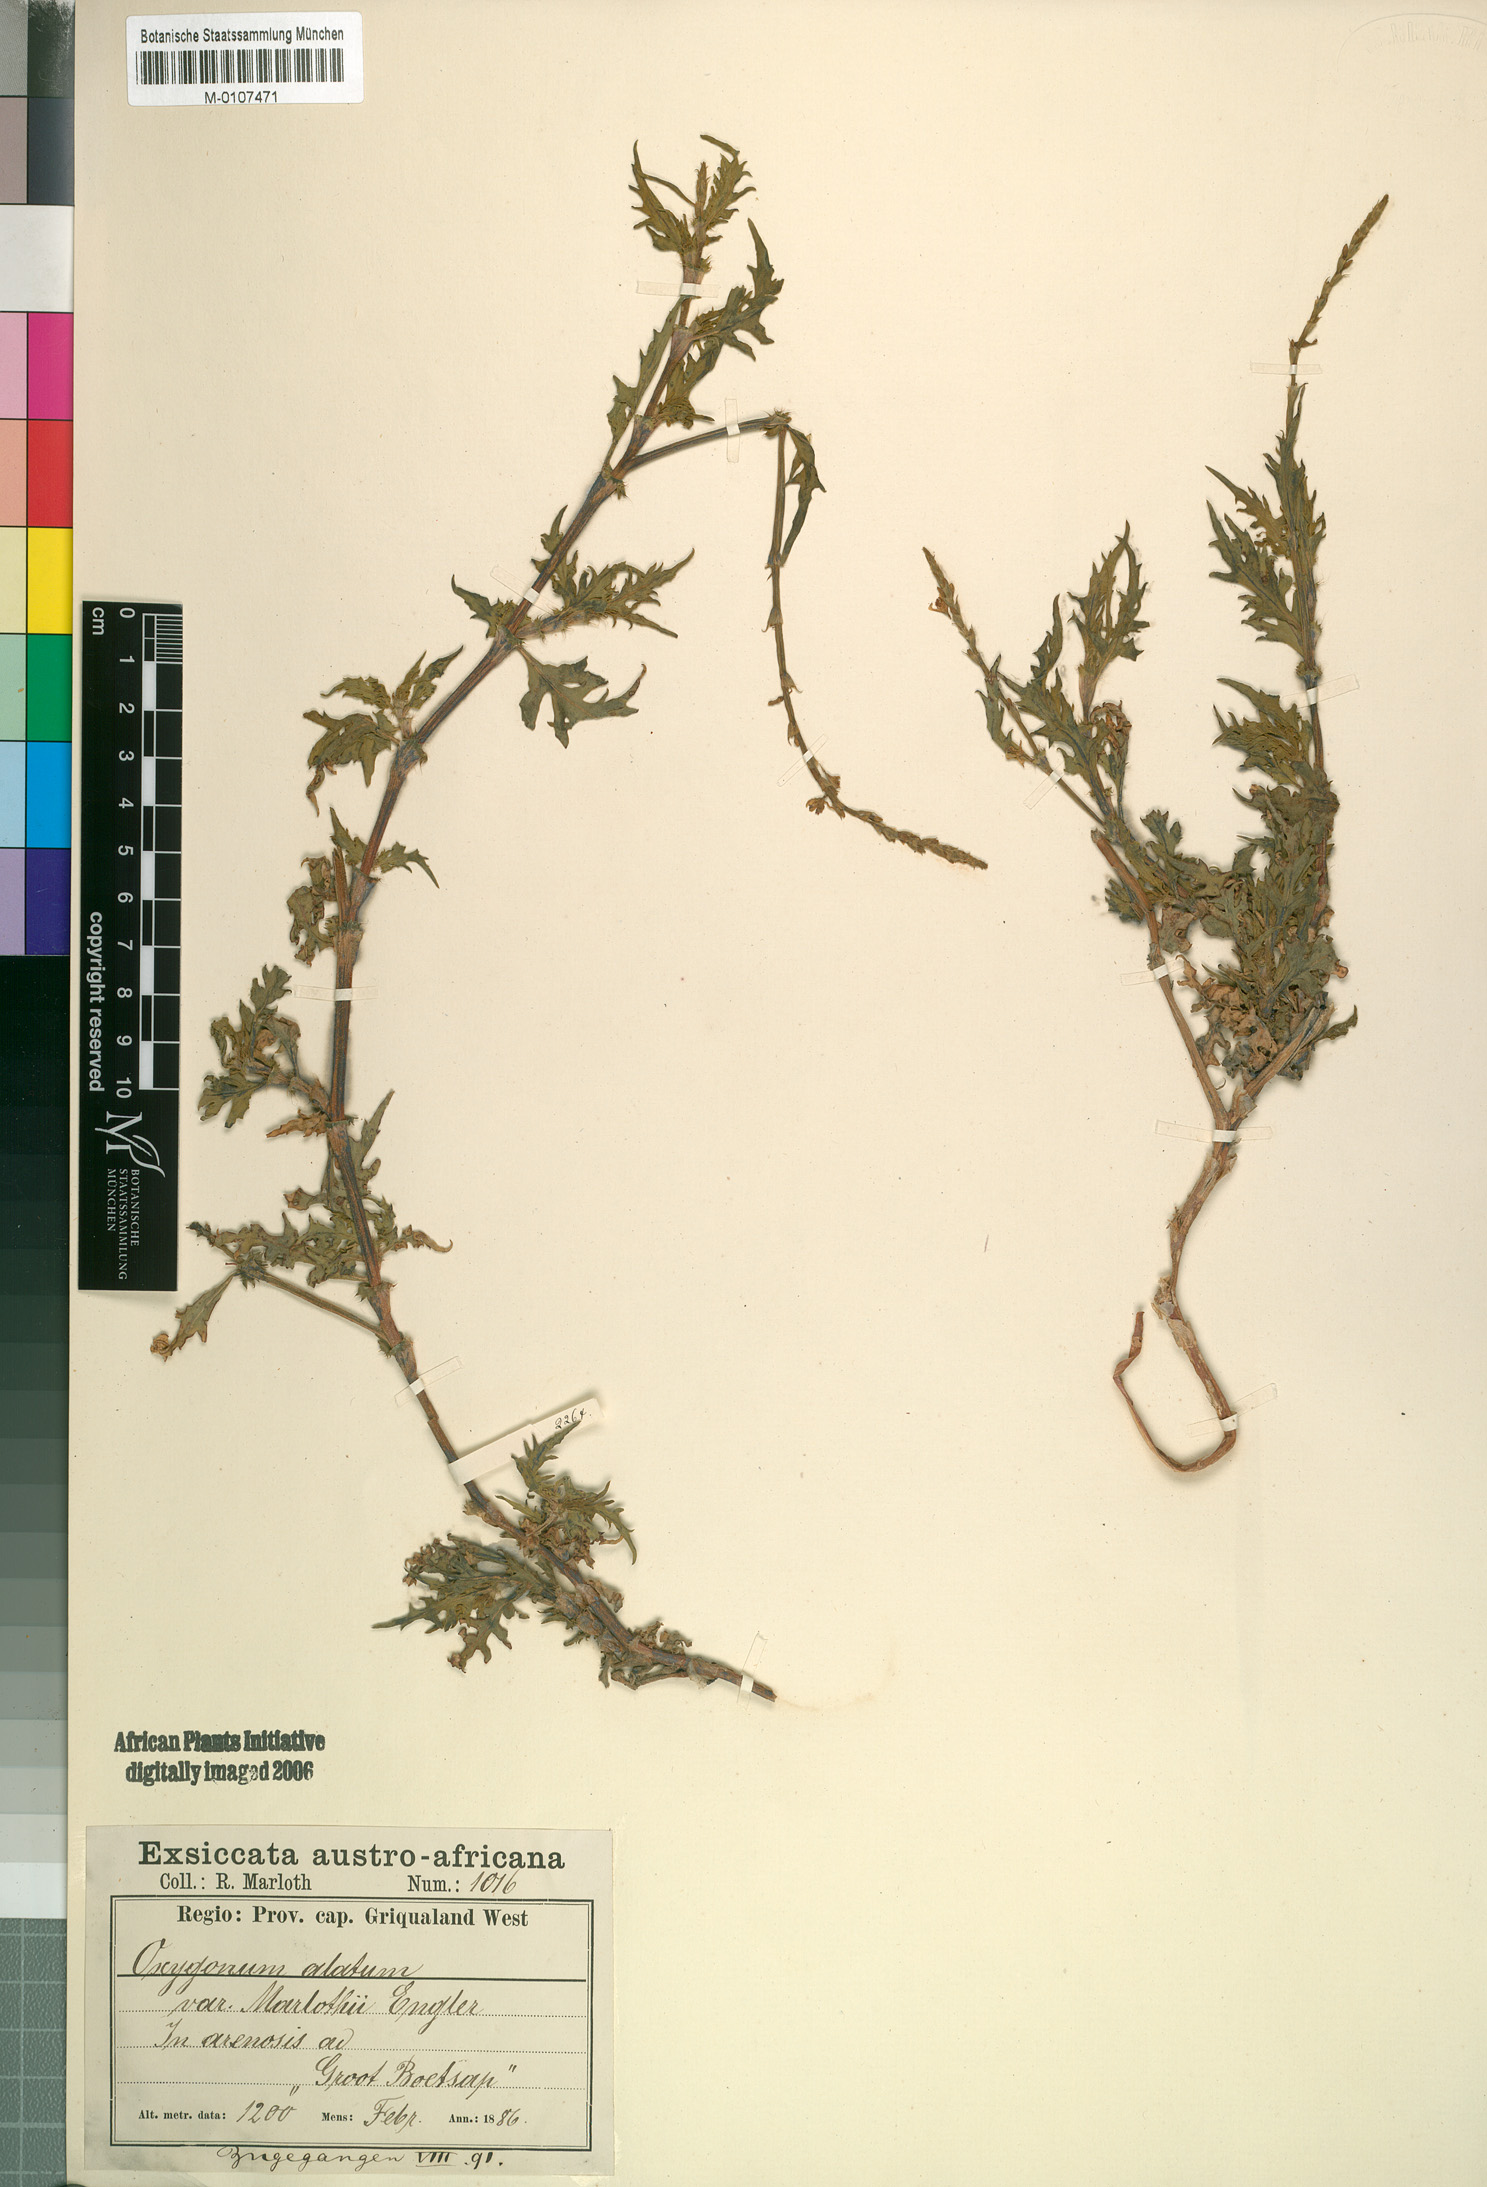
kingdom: Plantae
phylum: Tracheophyta
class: Magnoliopsida
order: Caryophyllales
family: Polygonaceae
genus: Oxygonum
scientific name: Oxygonum alatum
